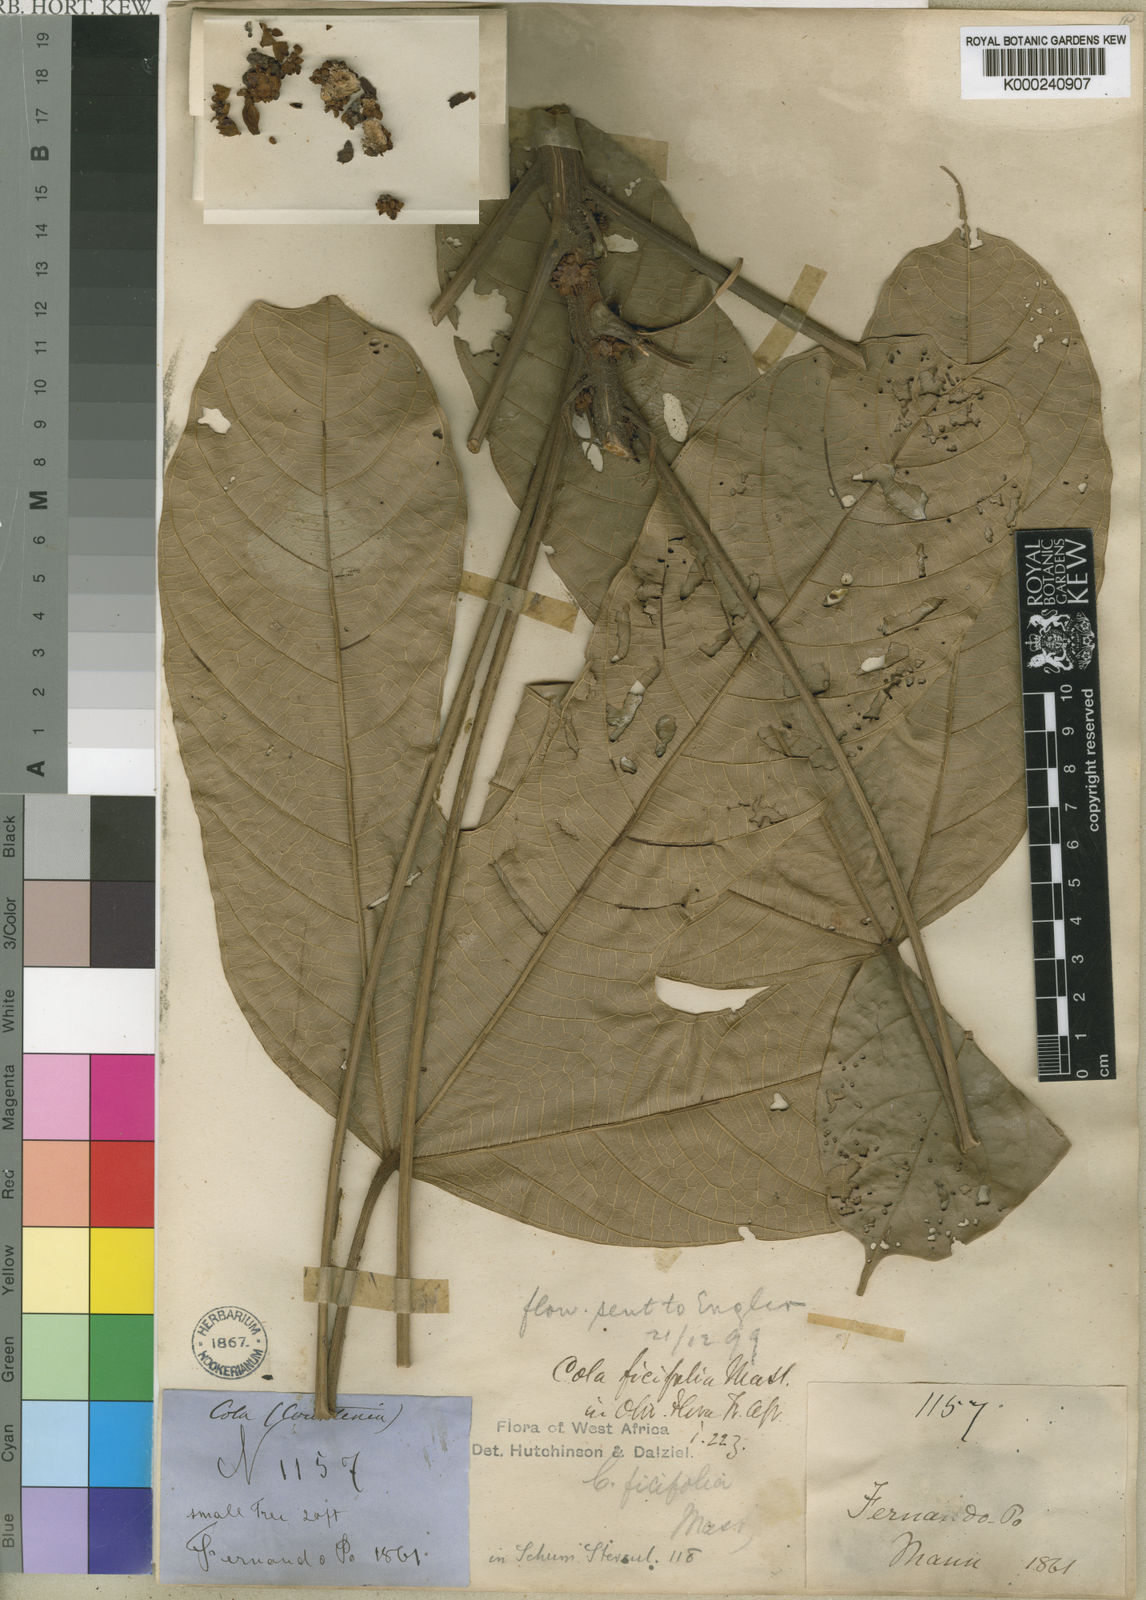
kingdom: Plantae
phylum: Tracheophyta
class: Magnoliopsida
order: Malvales
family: Malvaceae
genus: Cola
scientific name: Cola ficifolia
